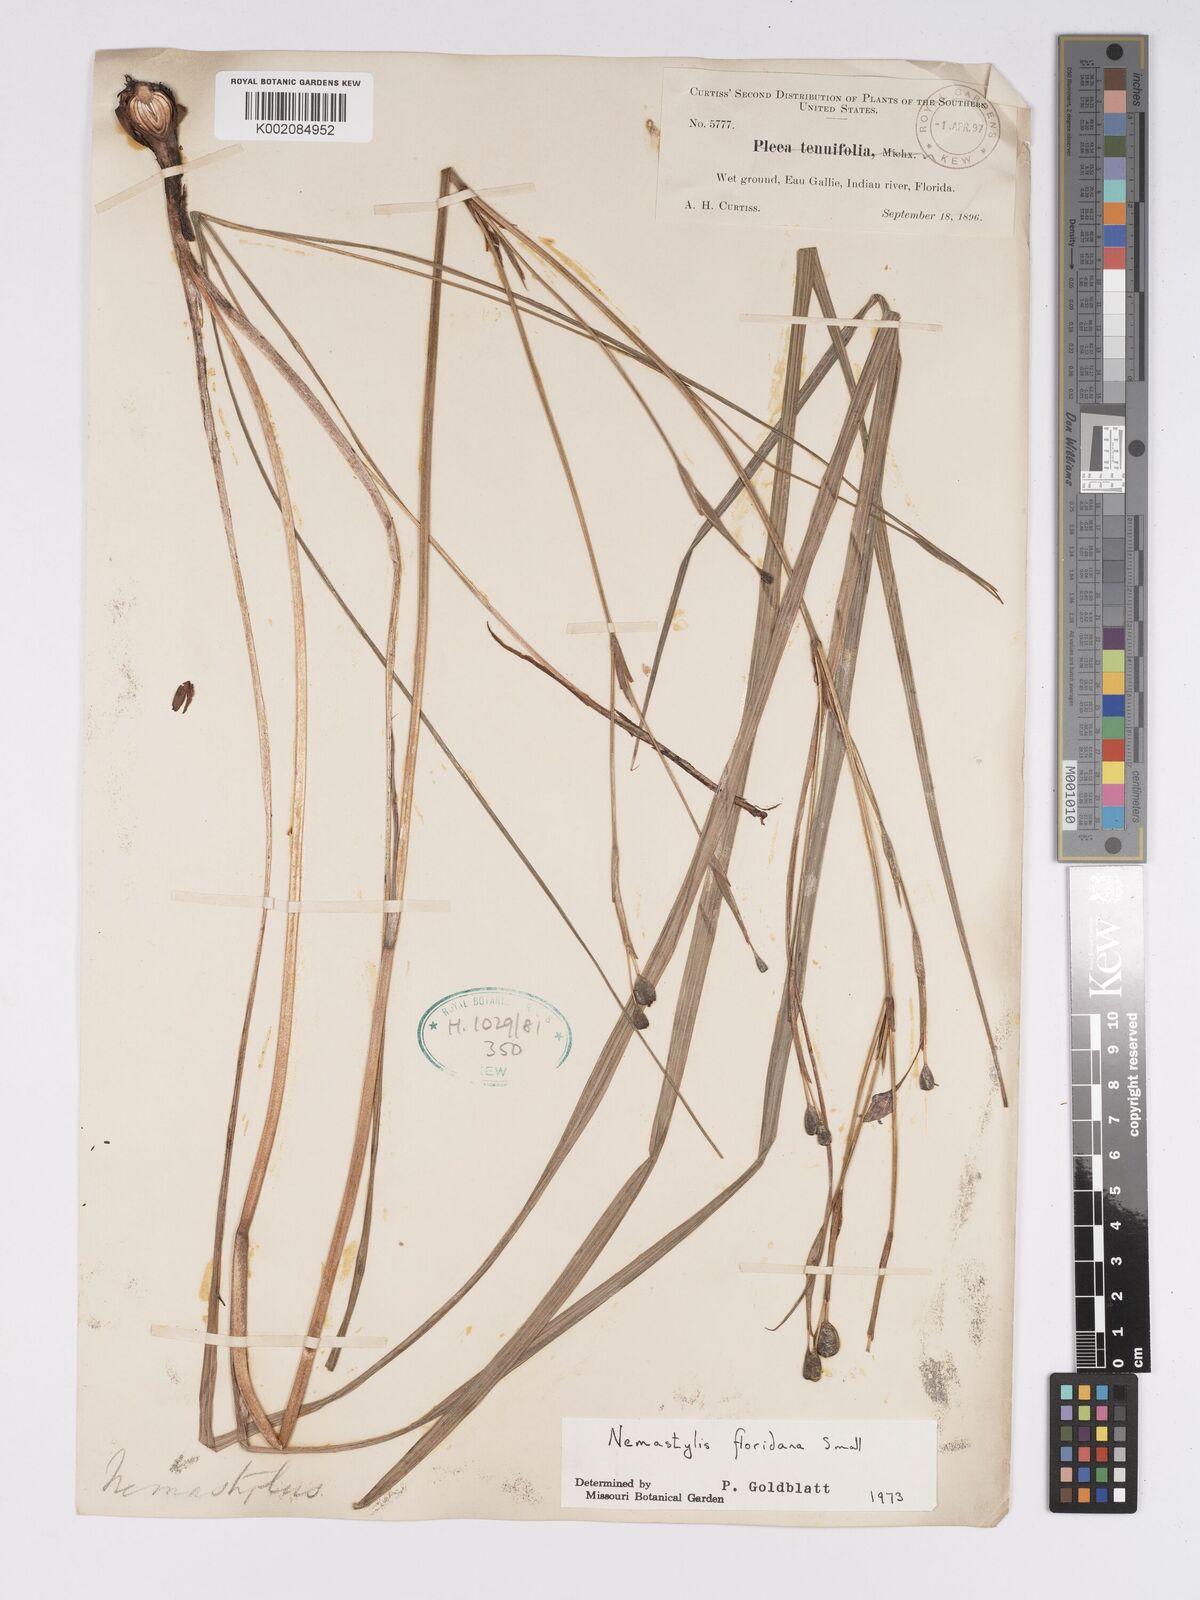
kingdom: Plantae
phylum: Tracheophyta
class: Liliopsida
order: Asparagales
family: Iridaceae
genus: Nemastylis
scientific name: Nemastylis floridana
